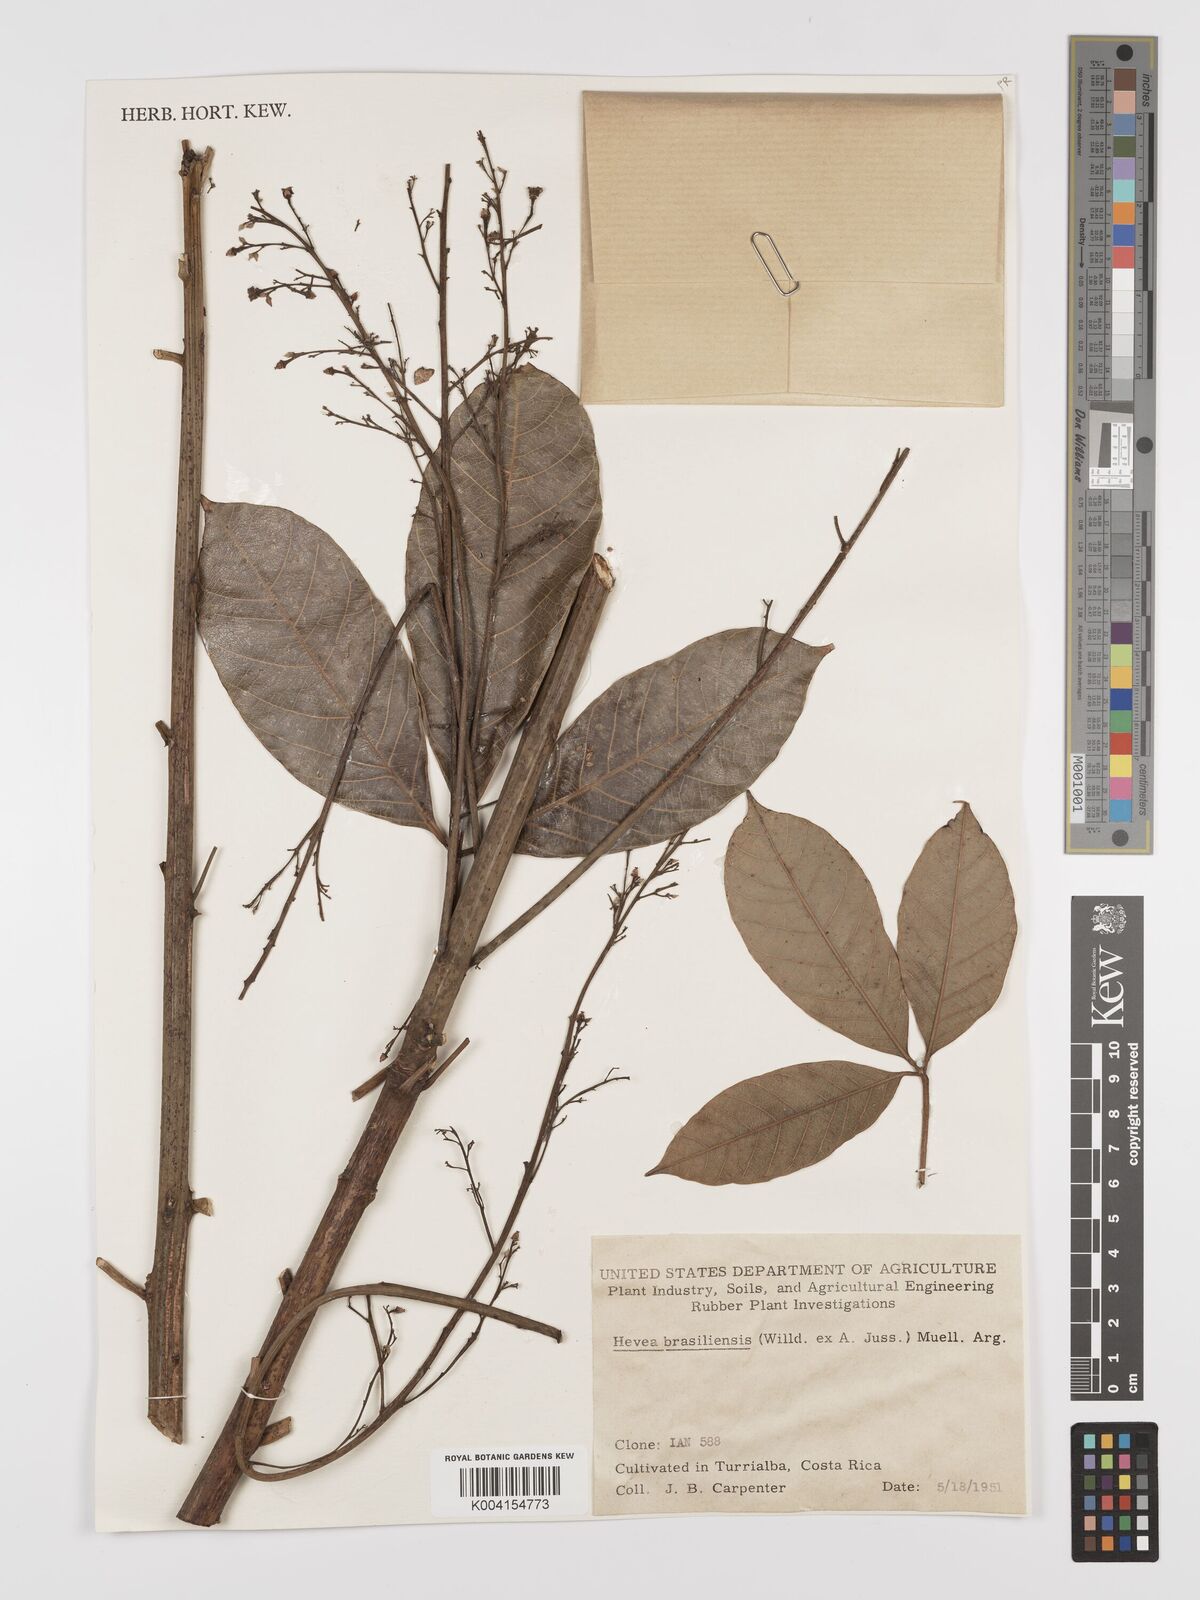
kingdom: Plantae
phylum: Tracheophyta
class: Magnoliopsida
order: Malpighiales
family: Euphorbiaceae
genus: Hevea
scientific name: Hevea brasiliensis
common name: Natural rubber
